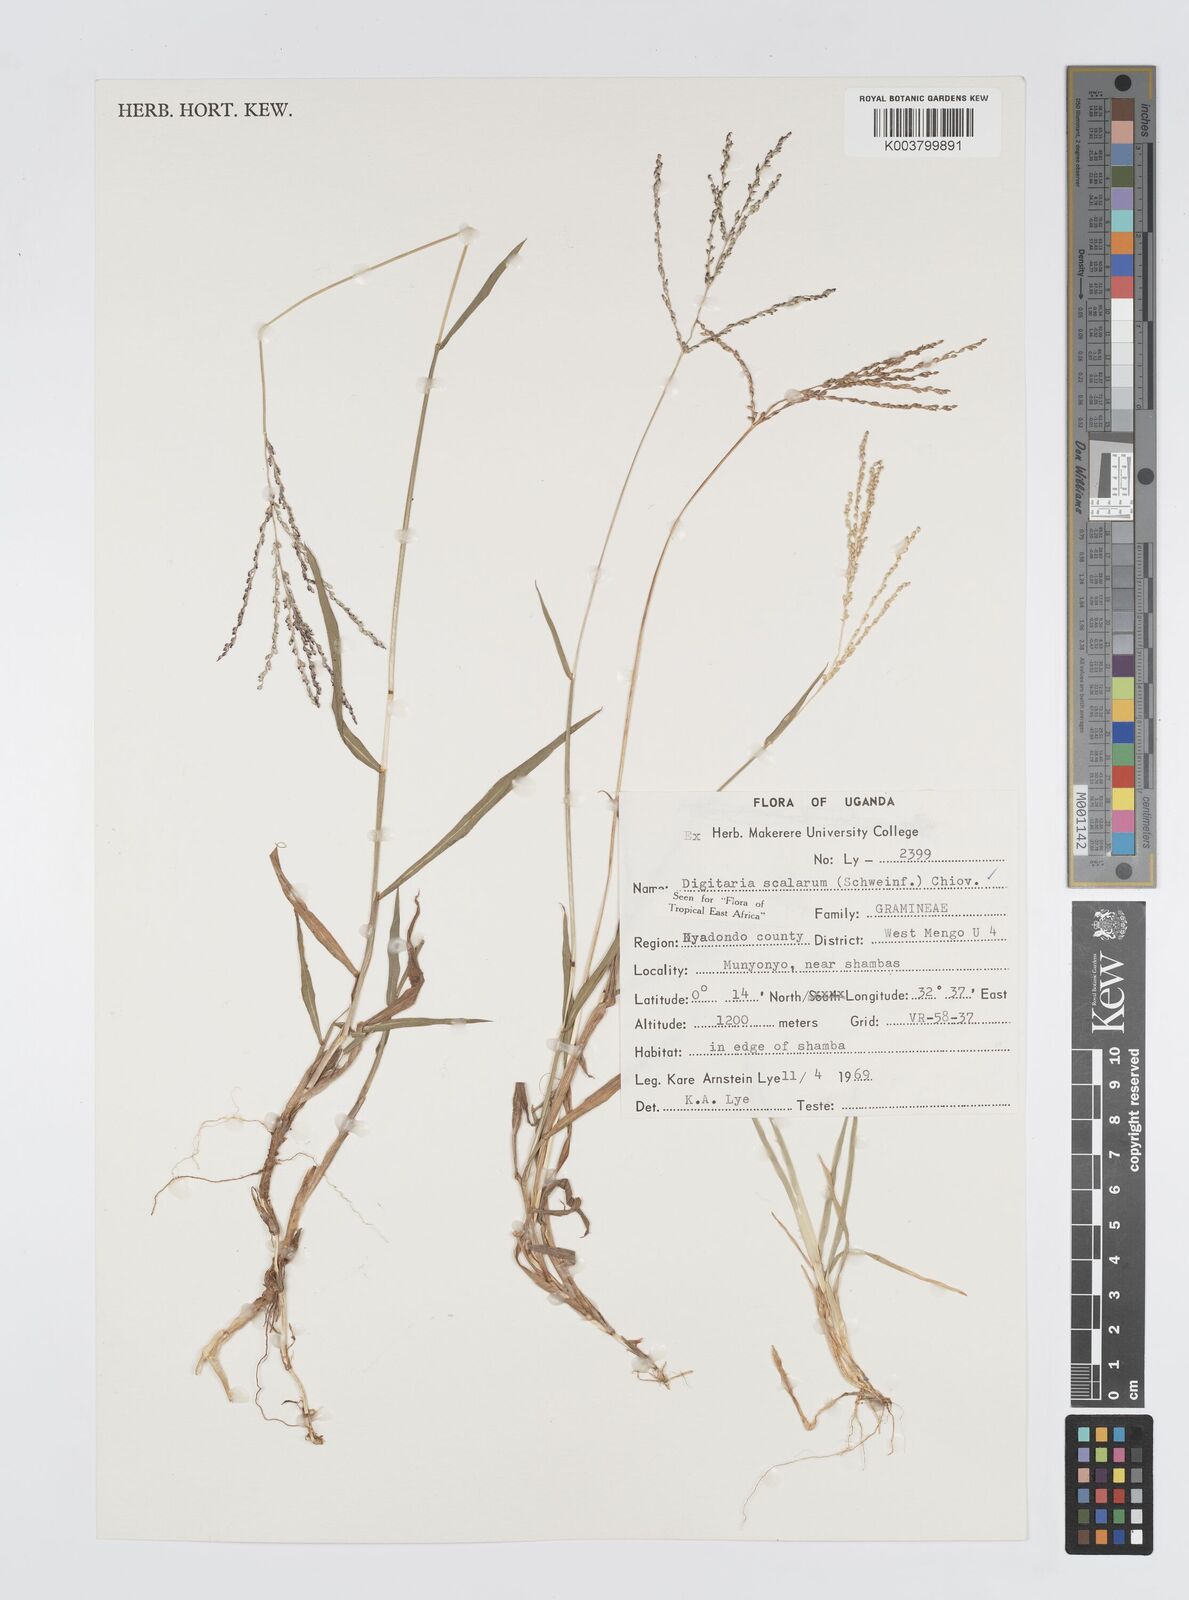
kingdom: Plantae
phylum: Tracheophyta
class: Liliopsida
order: Poales
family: Poaceae
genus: Digitaria
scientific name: Digitaria abyssinica
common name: African couchgrass
